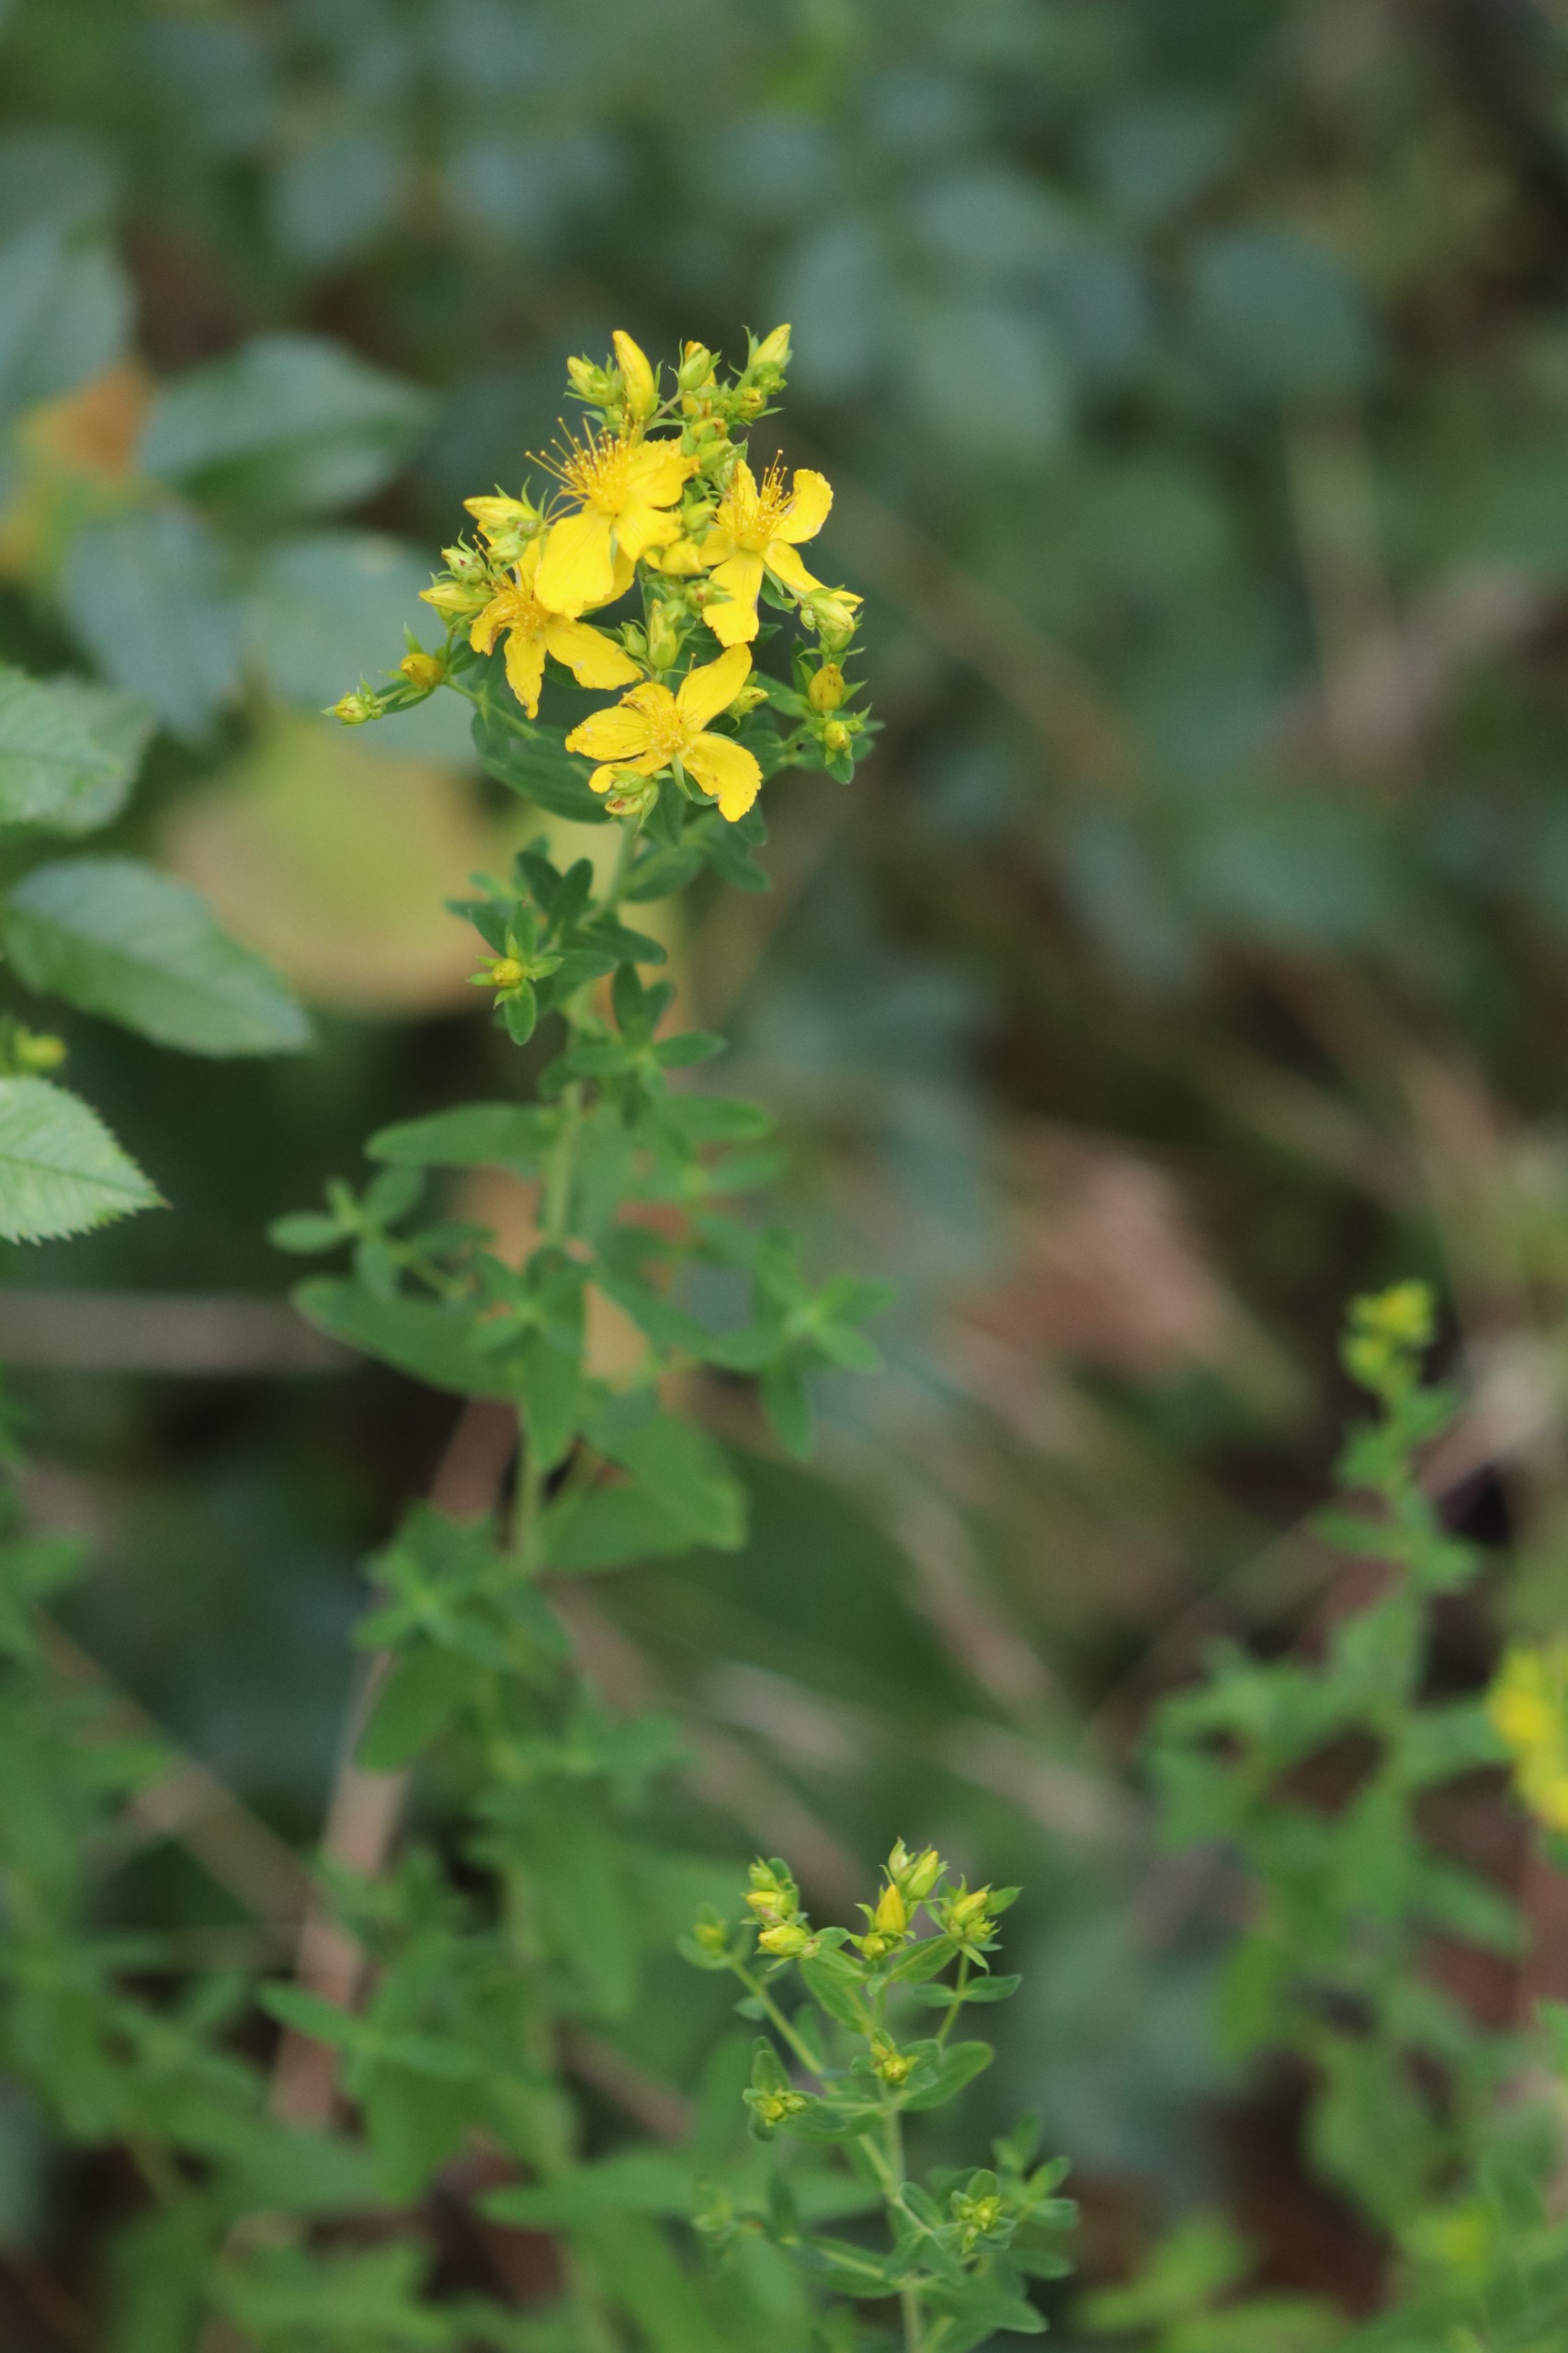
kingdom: Plantae
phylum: Tracheophyta
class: Magnoliopsida
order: Malpighiales
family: Hypericaceae
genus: Hypericum
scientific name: Hypericum perforatum
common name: Prikbladet perikon
